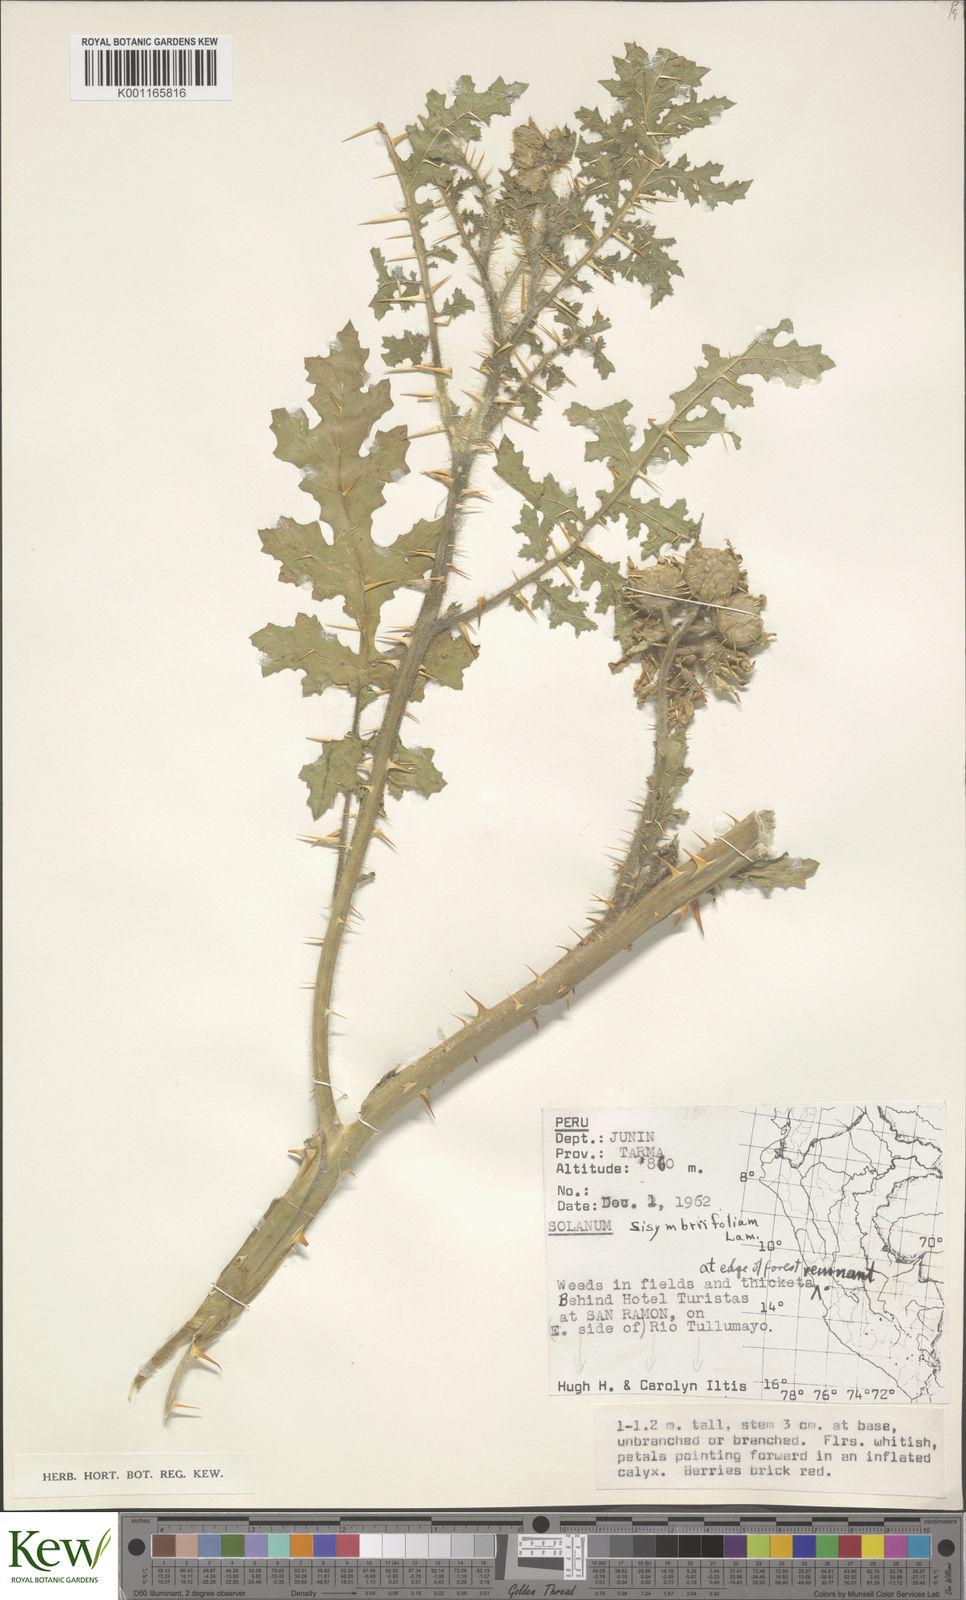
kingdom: Plantae
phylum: Tracheophyta
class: Magnoliopsida
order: Solanales
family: Solanaceae
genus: Solanum
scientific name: Solanum sisymbriifolium
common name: Red buffalo-bur
